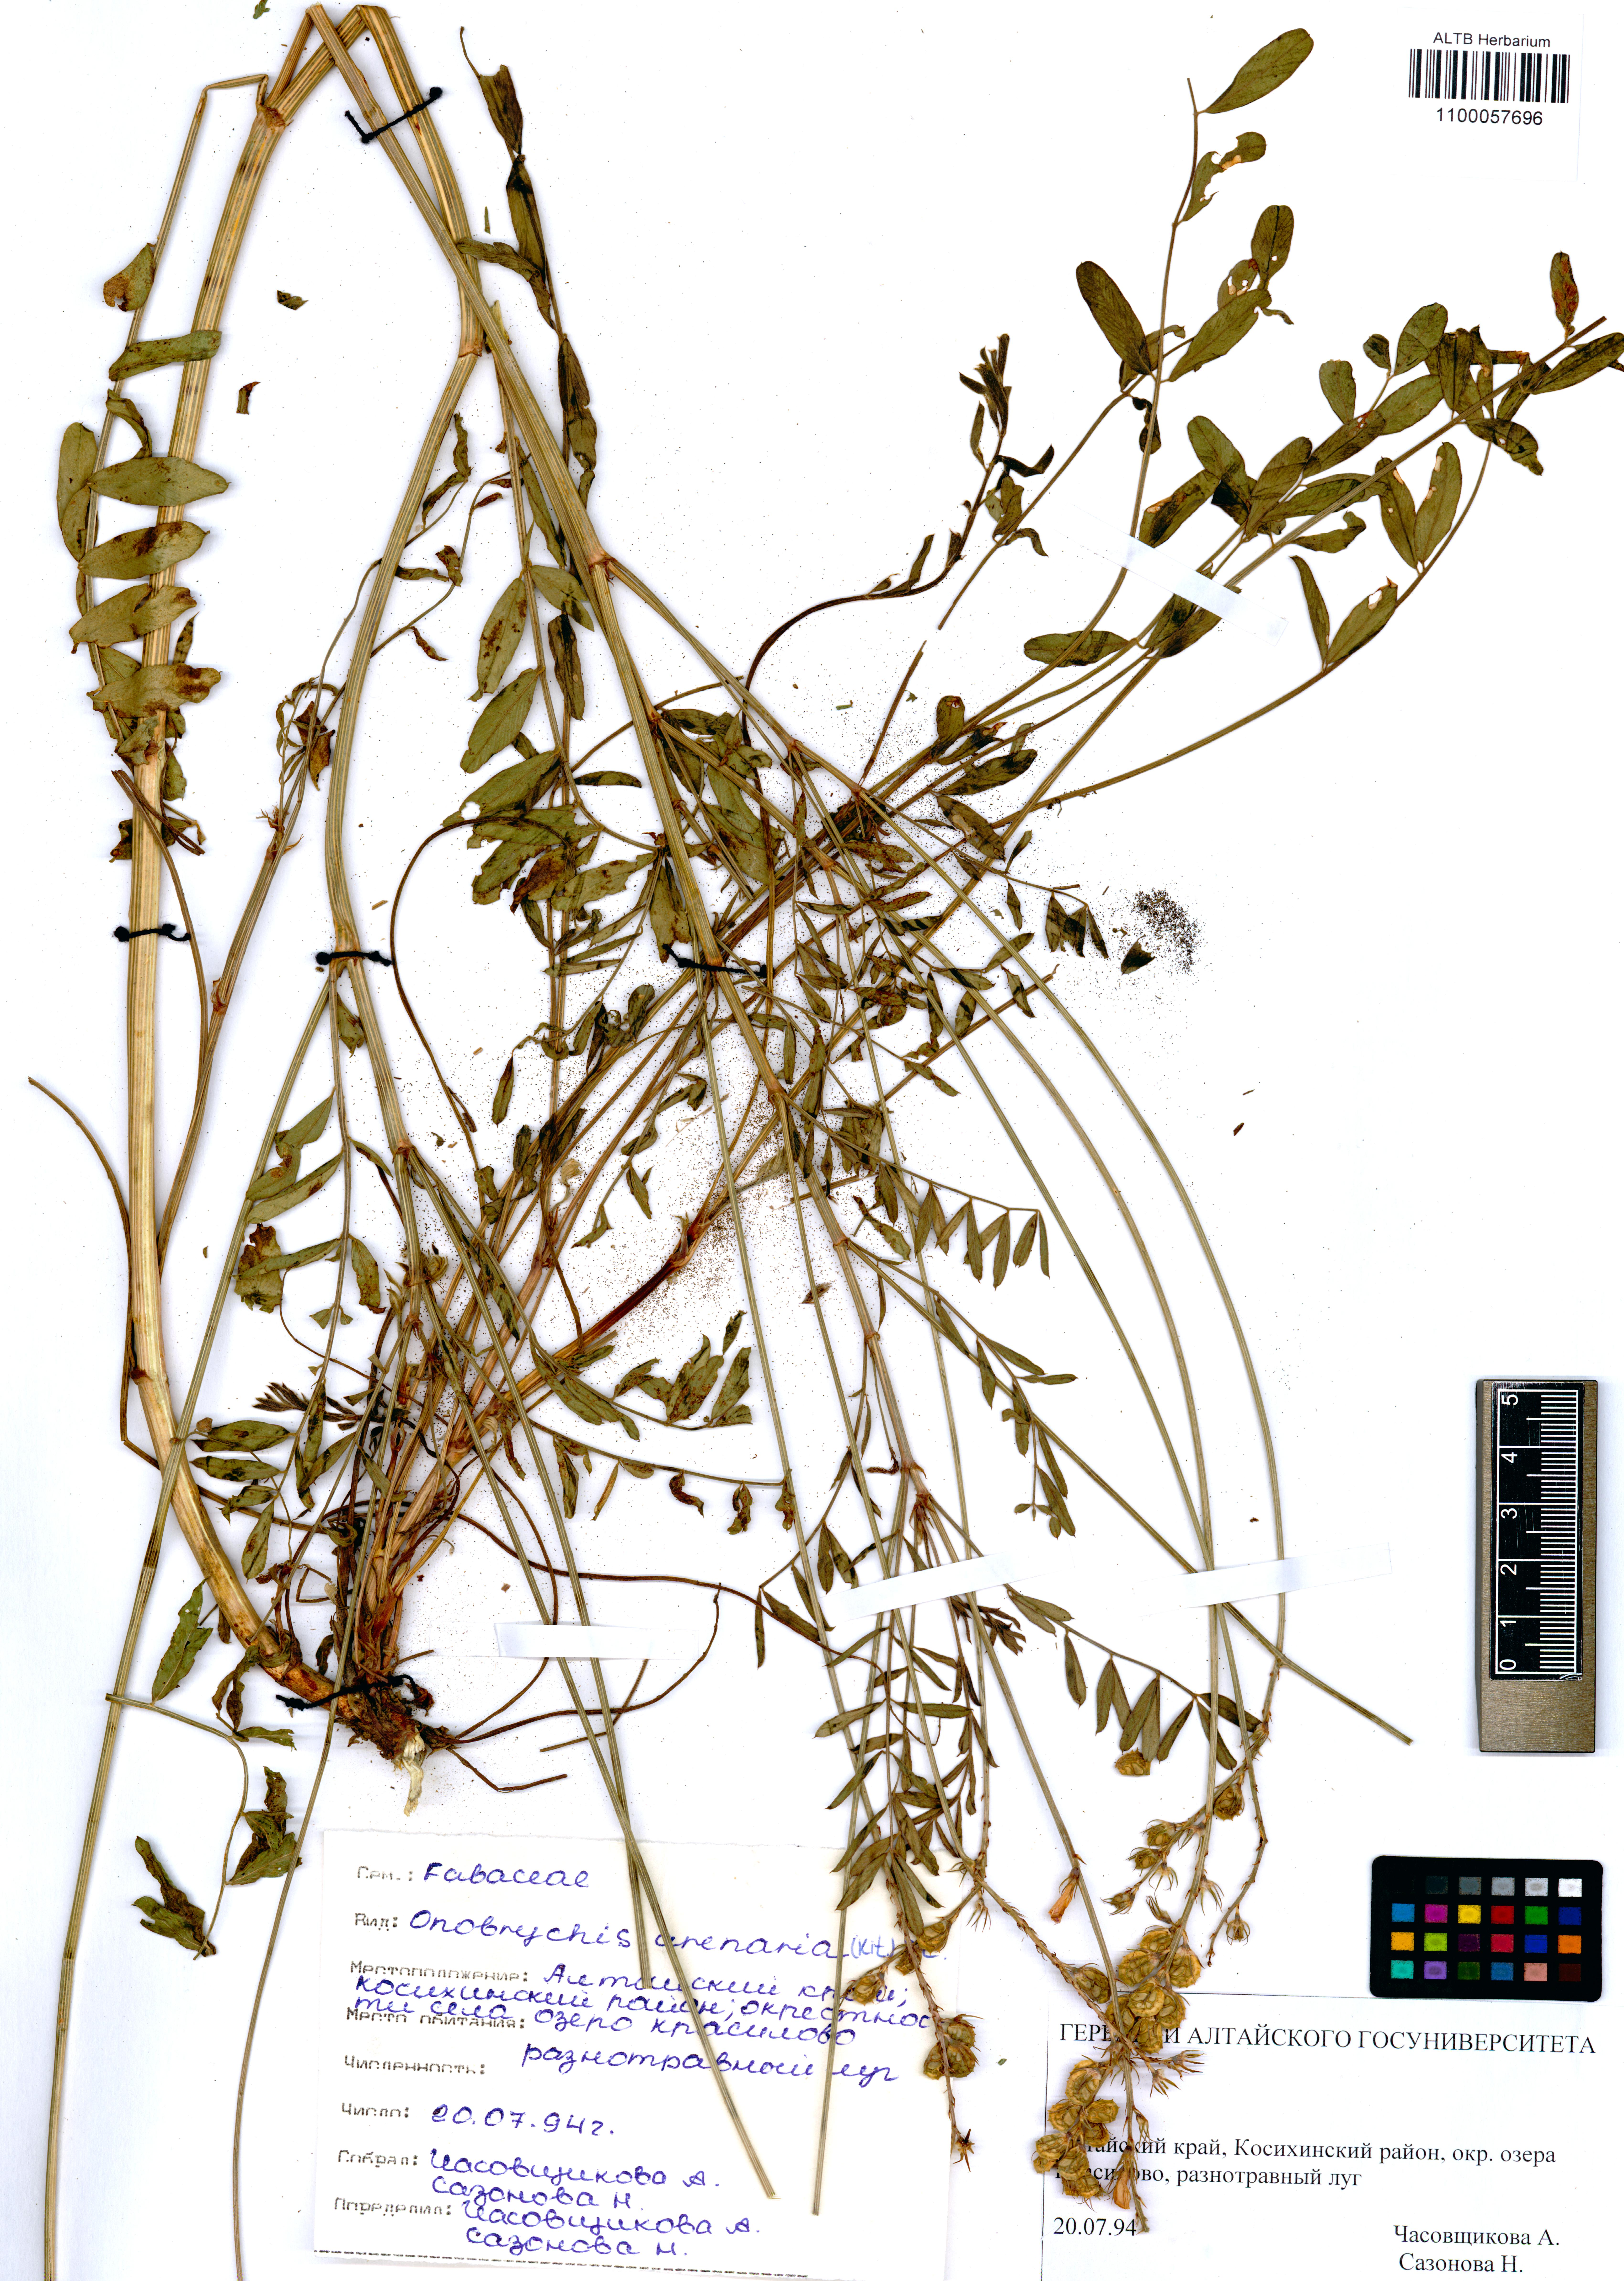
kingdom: Plantae
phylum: Tracheophyta
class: Magnoliopsida
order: Fabales
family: Fabaceae
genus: Onobrychis
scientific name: Onobrychis arenaria
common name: Sand esparcet
